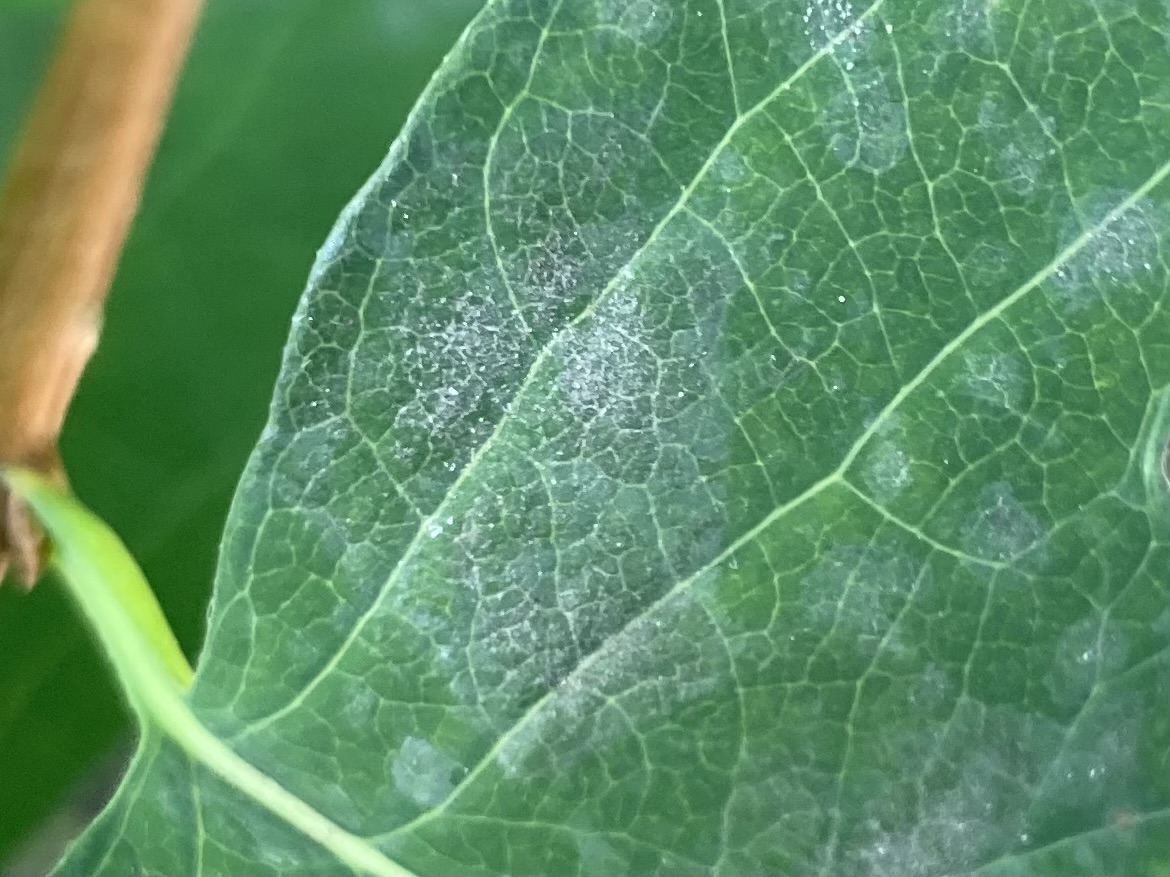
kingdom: Fungi
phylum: Ascomycota
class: Leotiomycetes
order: Helotiales
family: Erysiphaceae
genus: Erysiphe
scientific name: Erysiphe symphoricarpi
